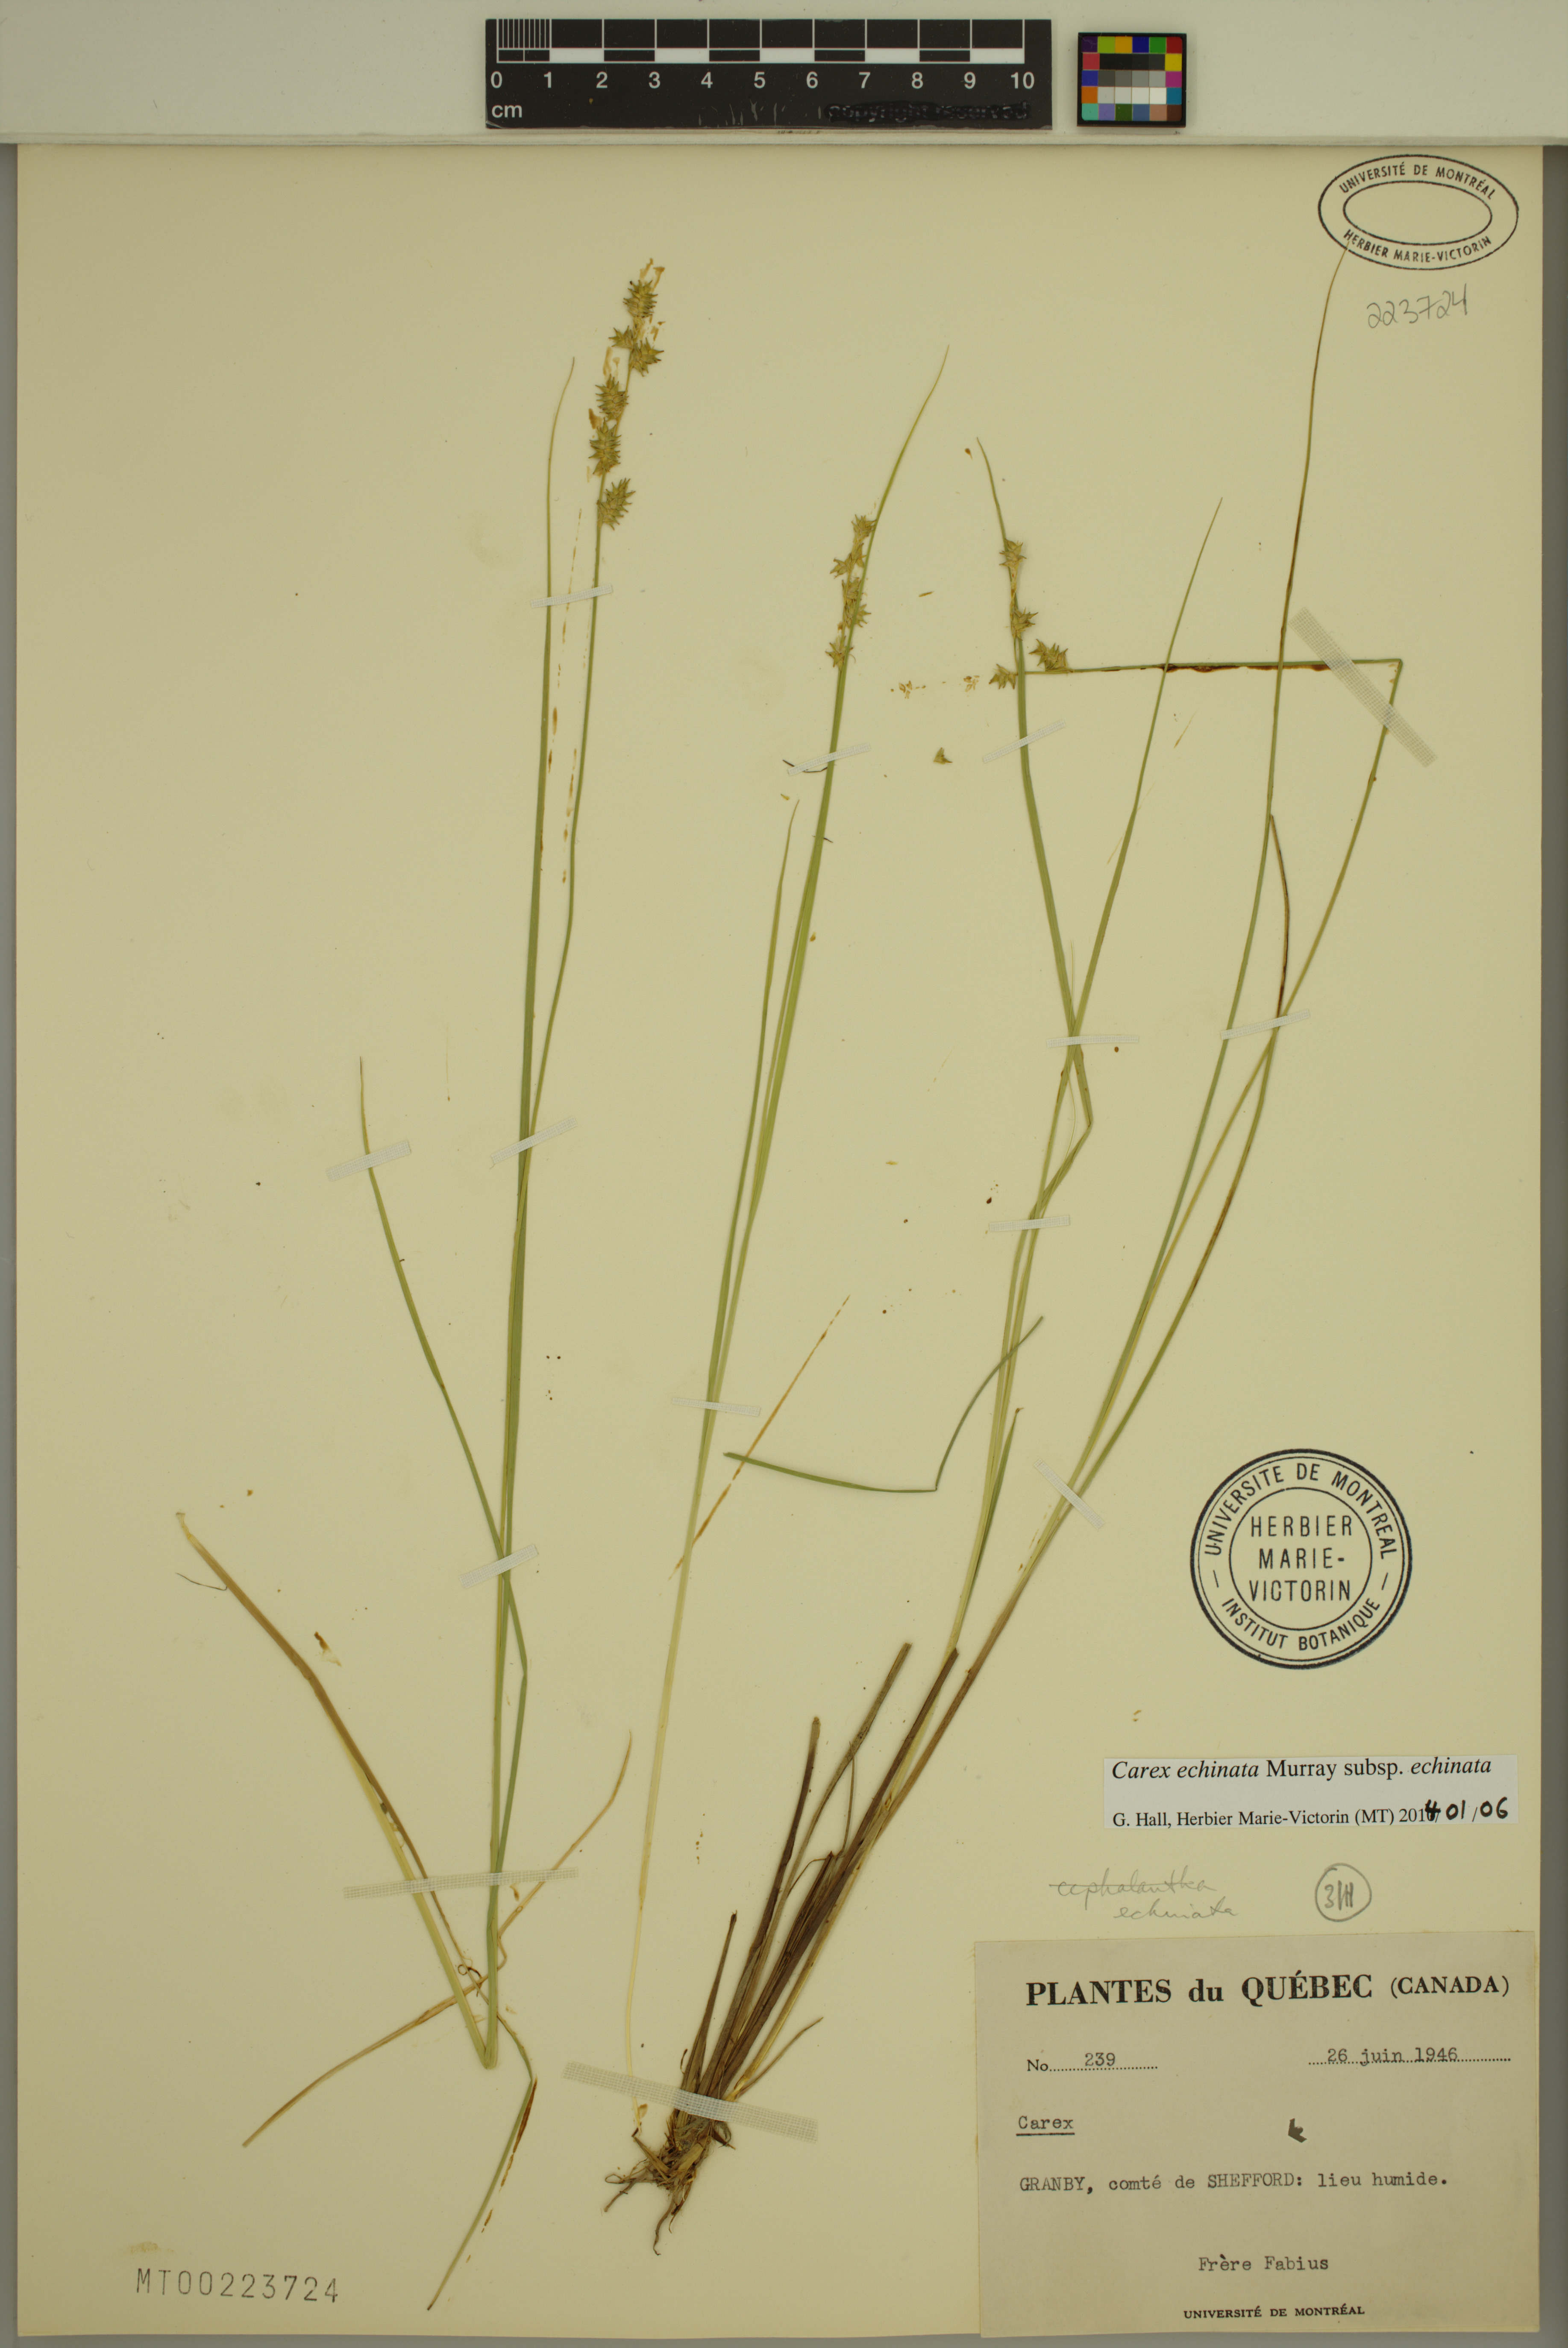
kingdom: Plantae
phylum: Tracheophyta
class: Liliopsida
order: Poales
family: Cyperaceae
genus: Carex
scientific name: Carex echinata
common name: Star sedge
